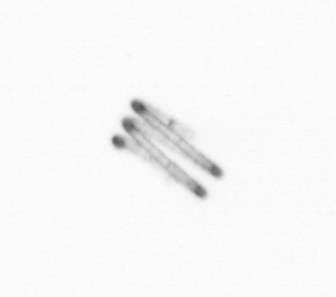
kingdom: Chromista
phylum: Ochrophyta
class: Bacillariophyceae
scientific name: Bacillariophyceae
